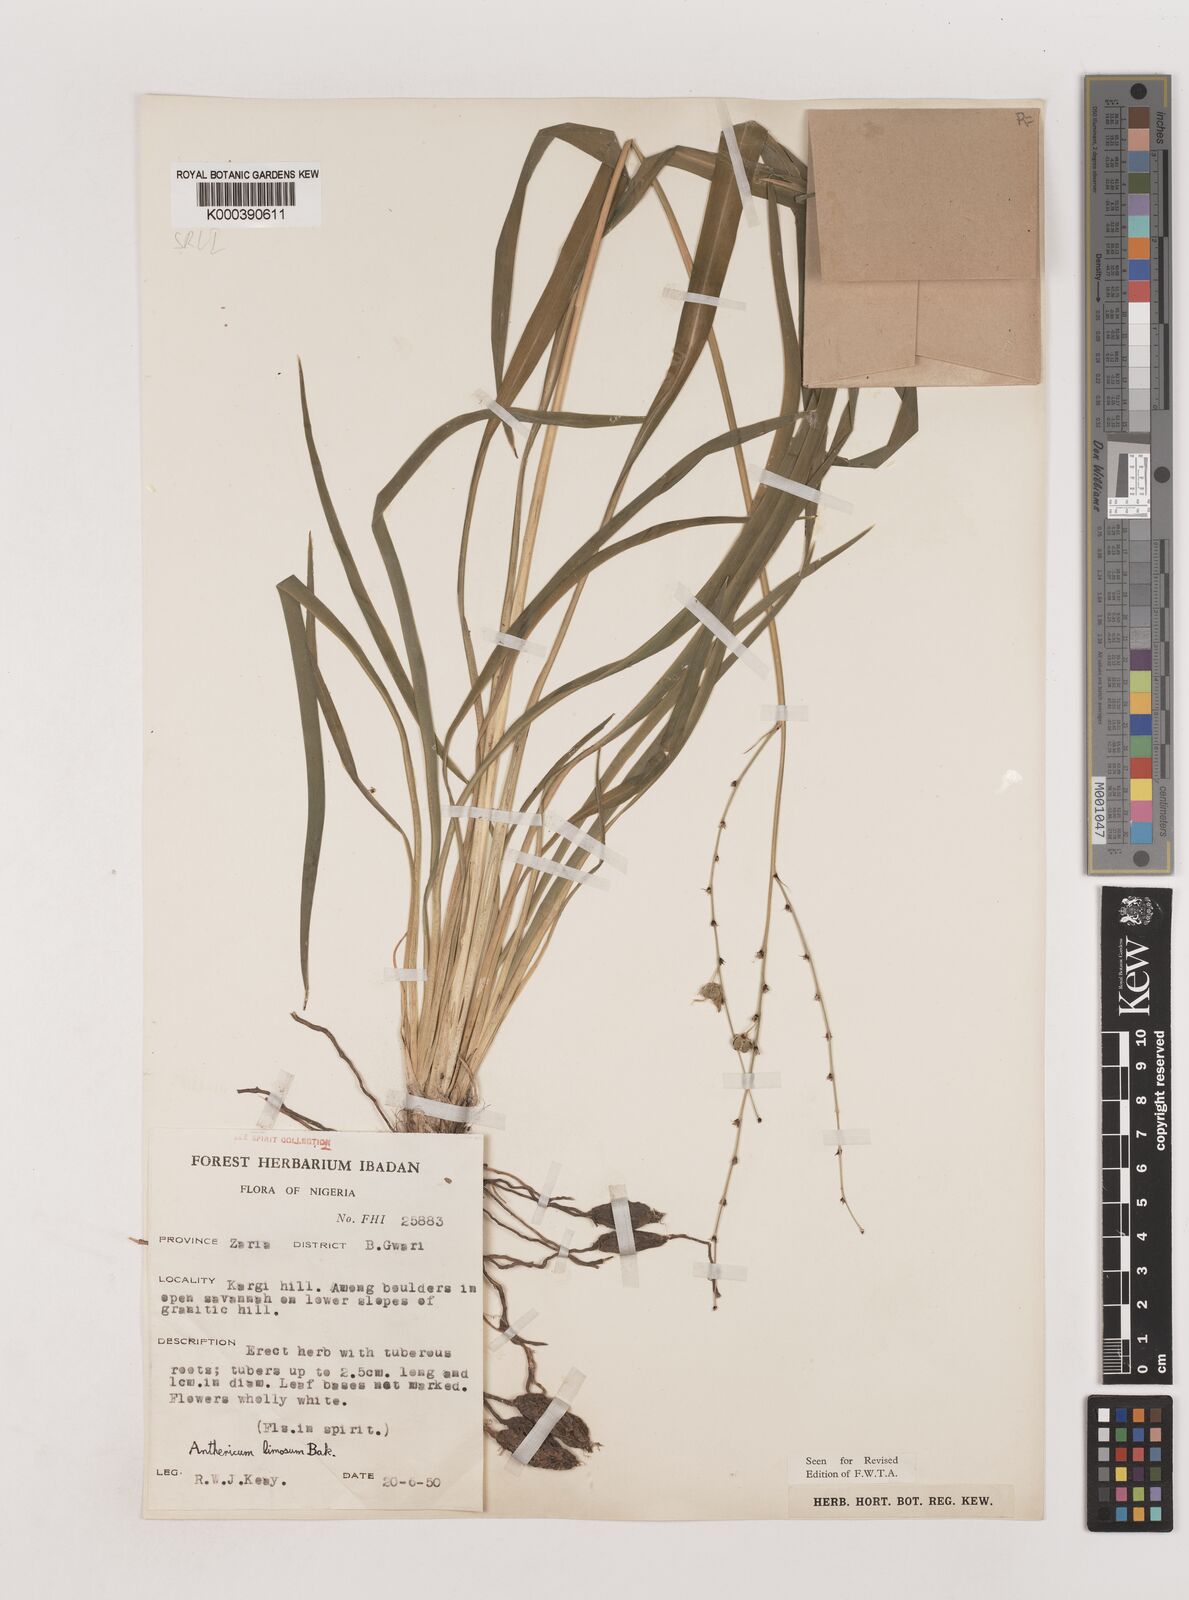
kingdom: Plantae
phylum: Tracheophyta
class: Liliopsida
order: Asparagales
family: Asparagaceae
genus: Chlorophytum
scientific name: Chlorophytum limosum
